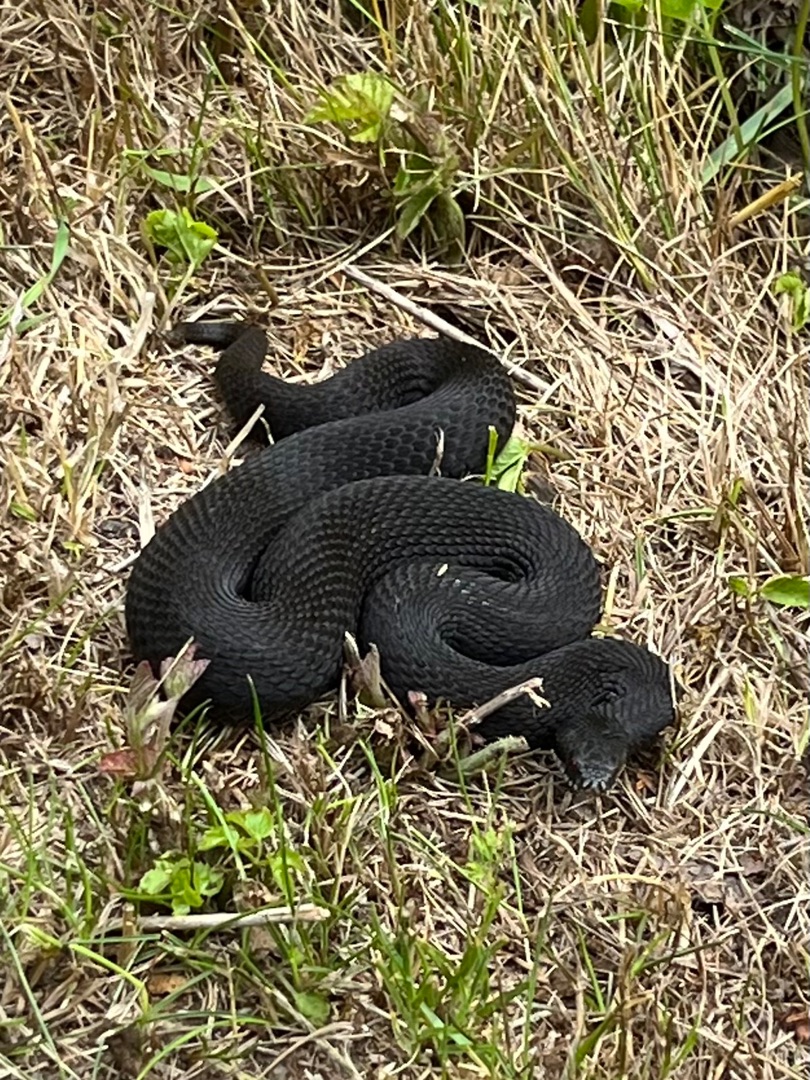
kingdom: Animalia
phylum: Chordata
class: Squamata
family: Viperidae
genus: Vipera
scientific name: Vipera berus
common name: Hugorm
